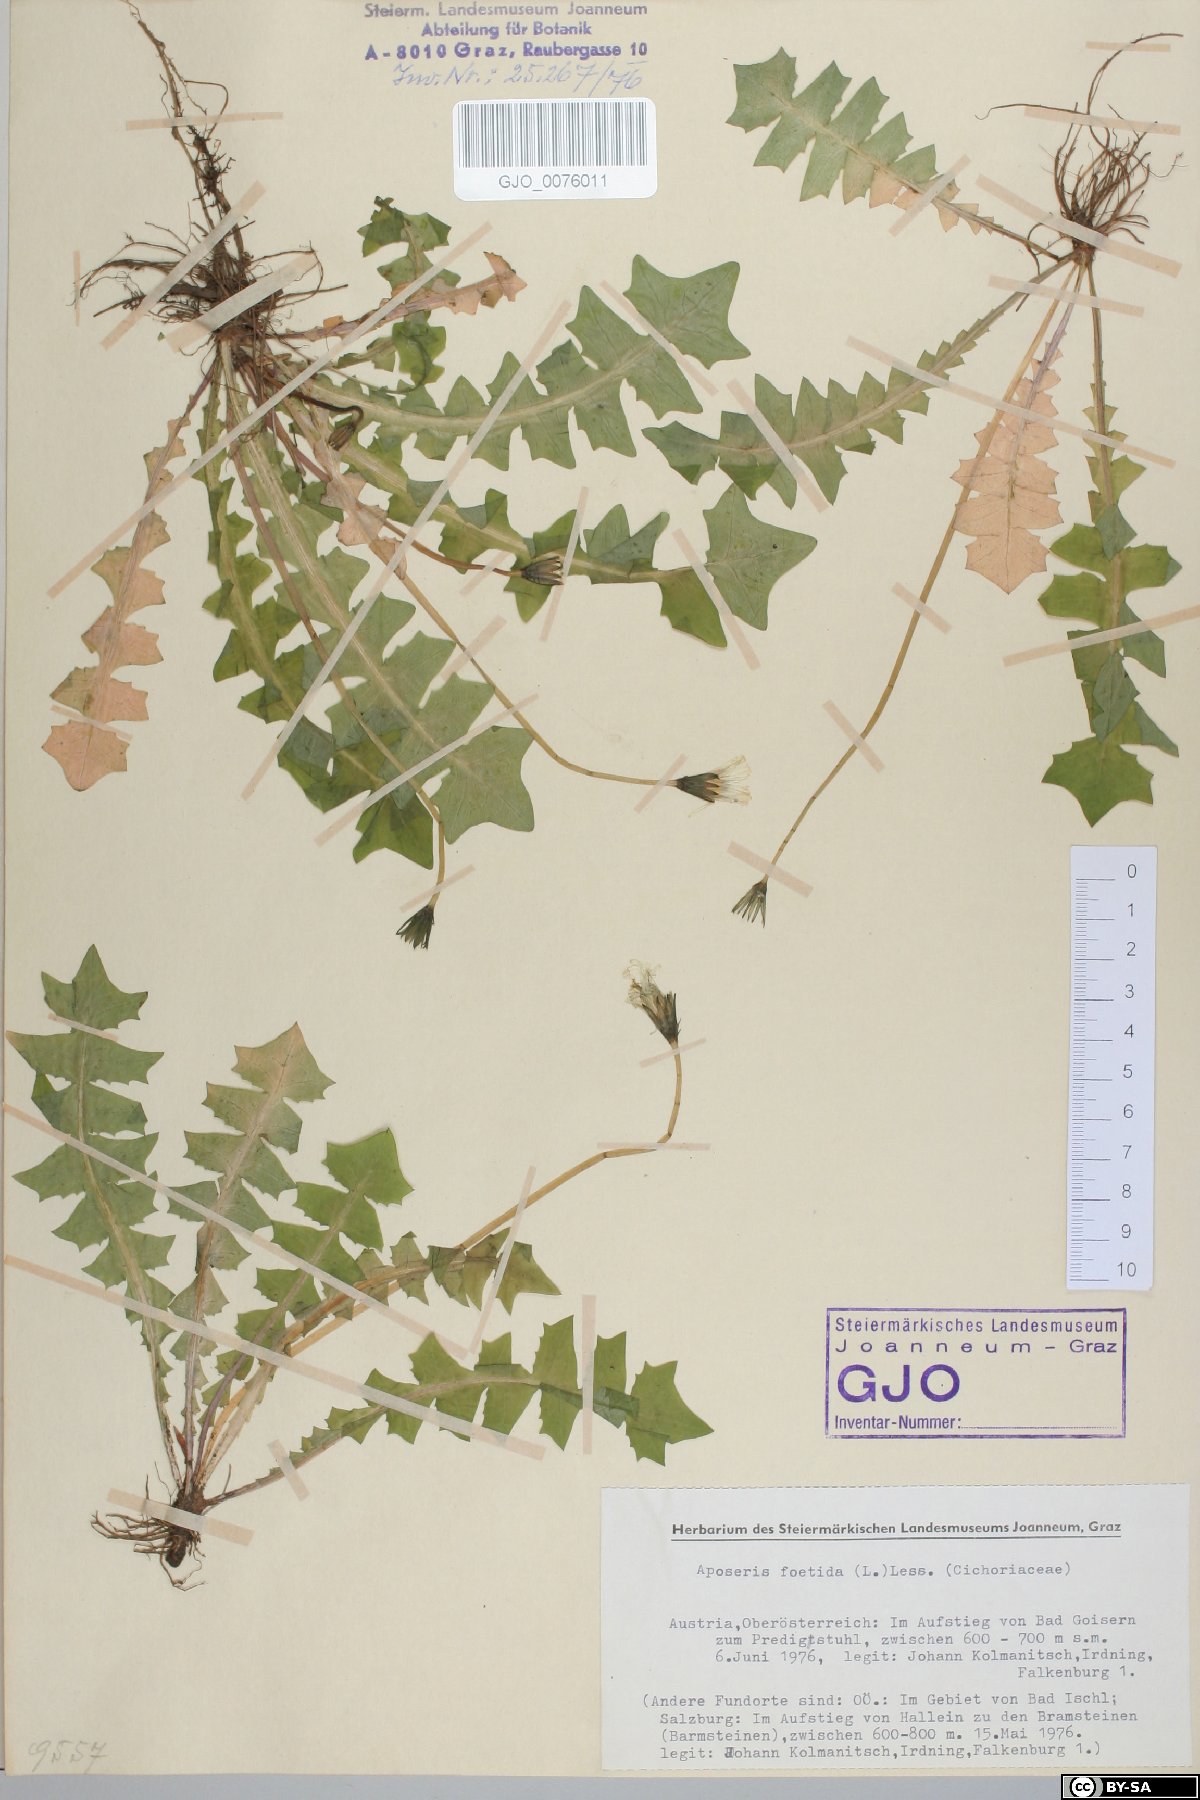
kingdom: Plantae
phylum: Tracheophyta
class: Magnoliopsida
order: Asterales
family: Asteraceae
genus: Aposeris
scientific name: Aposeris foetida
